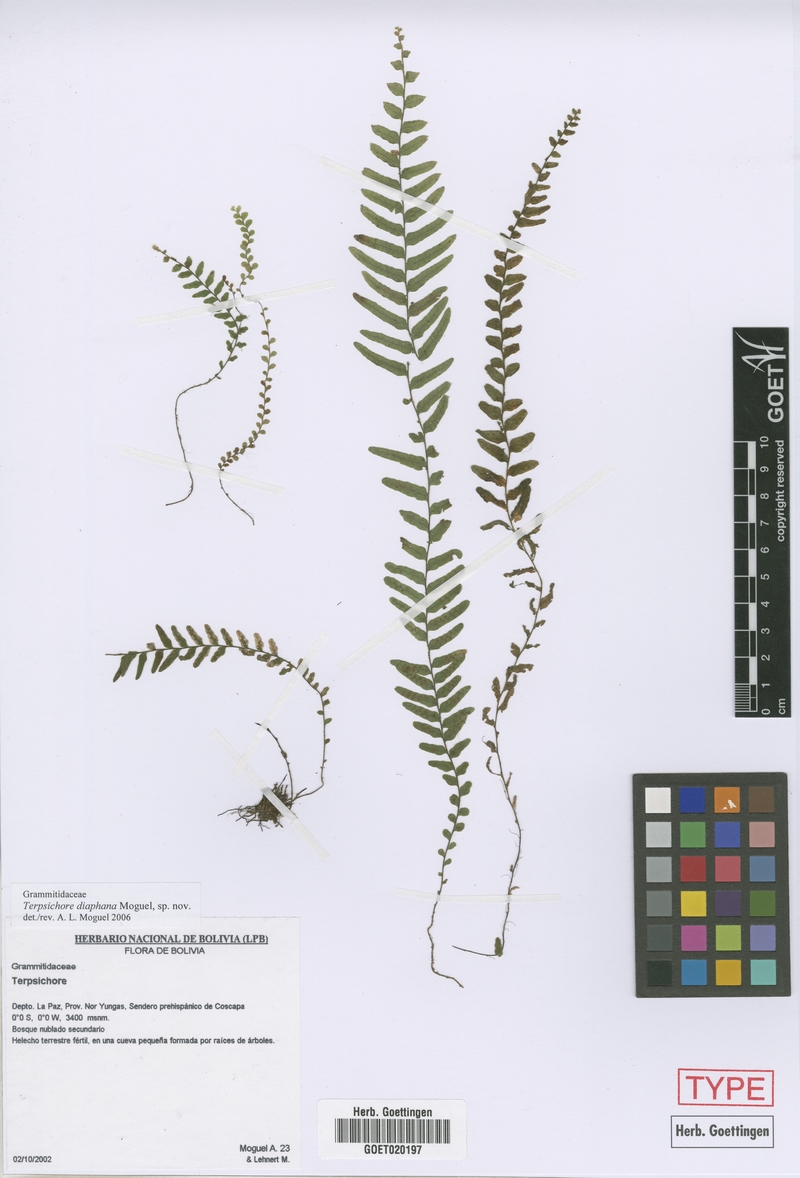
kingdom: Plantae
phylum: Tracheophyta
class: Polypodiopsida
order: Polypodiales
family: Polypodiaceae
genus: Alansmia
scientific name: Alansmia diaphana
